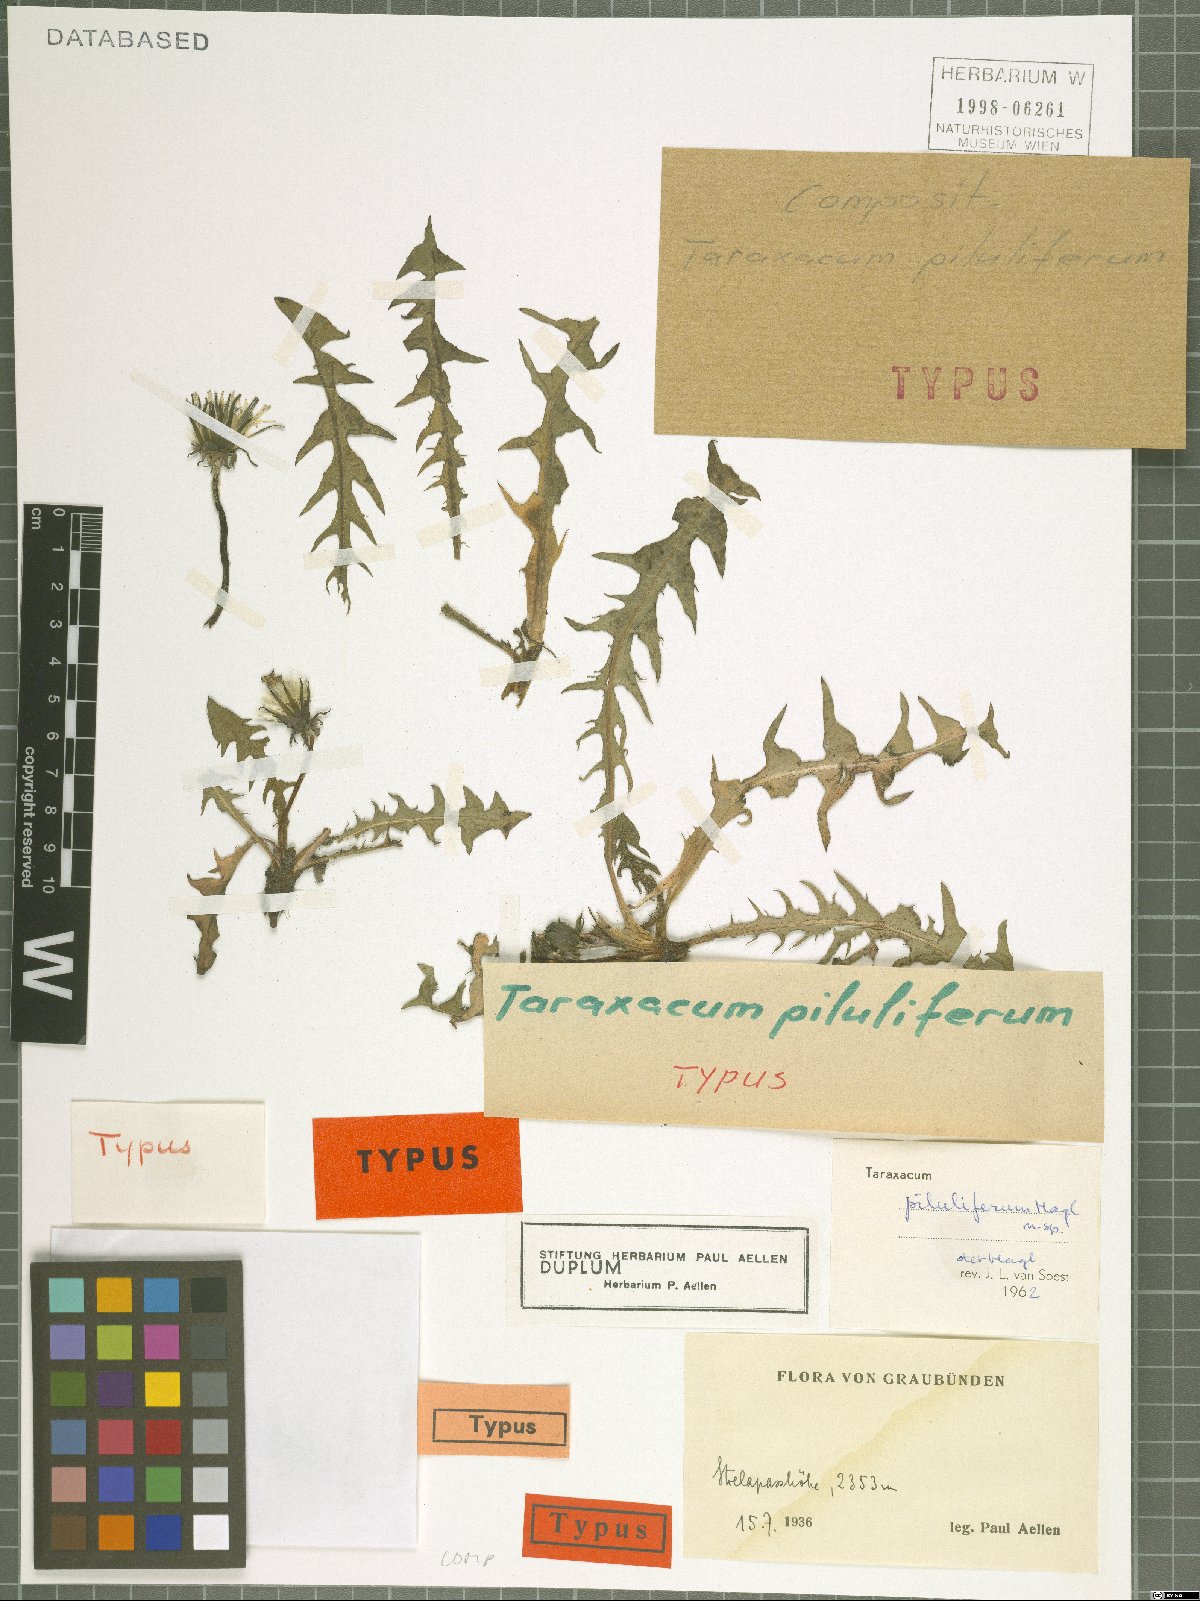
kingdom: Plantae
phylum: Tracheophyta
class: Magnoliopsida
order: Asterales
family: Asteraceae
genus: Taraxacum
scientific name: Taraxacum piluliferum
